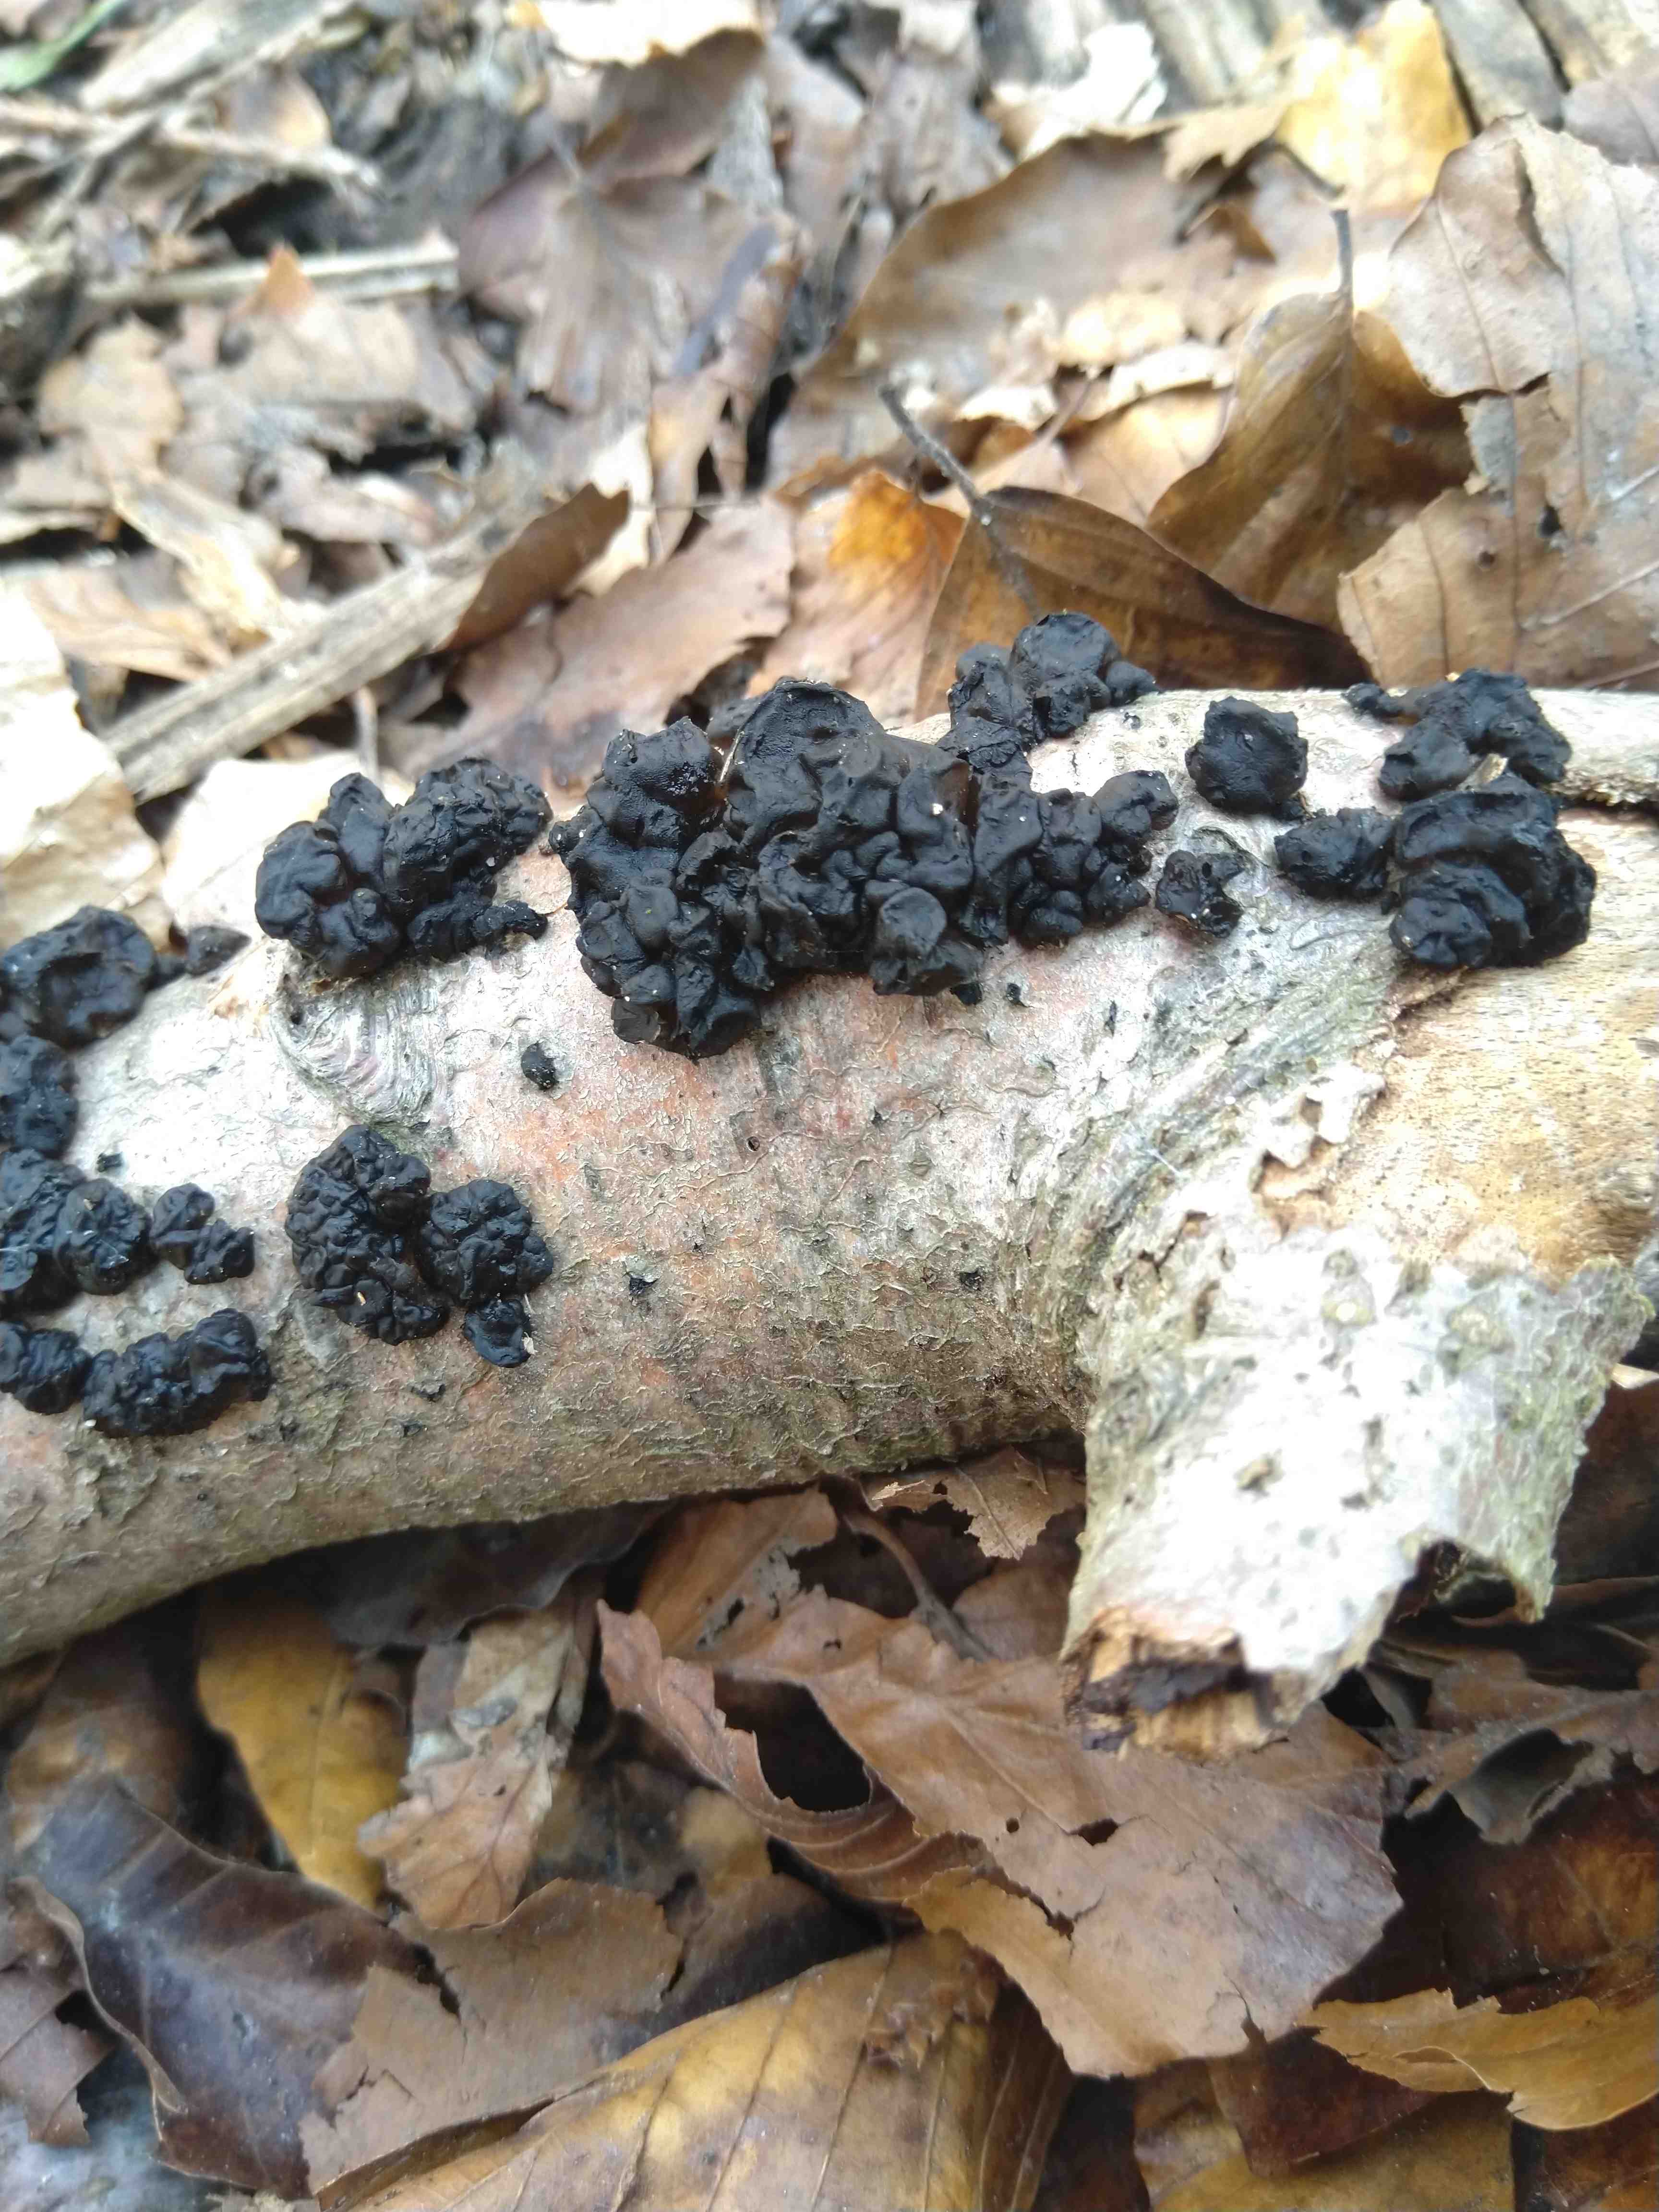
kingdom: Fungi
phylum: Basidiomycota
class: Agaricomycetes
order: Auriculariales
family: Auriculariaceae
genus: Exidia
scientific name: Exidia nigricans
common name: almindelig bævretop
